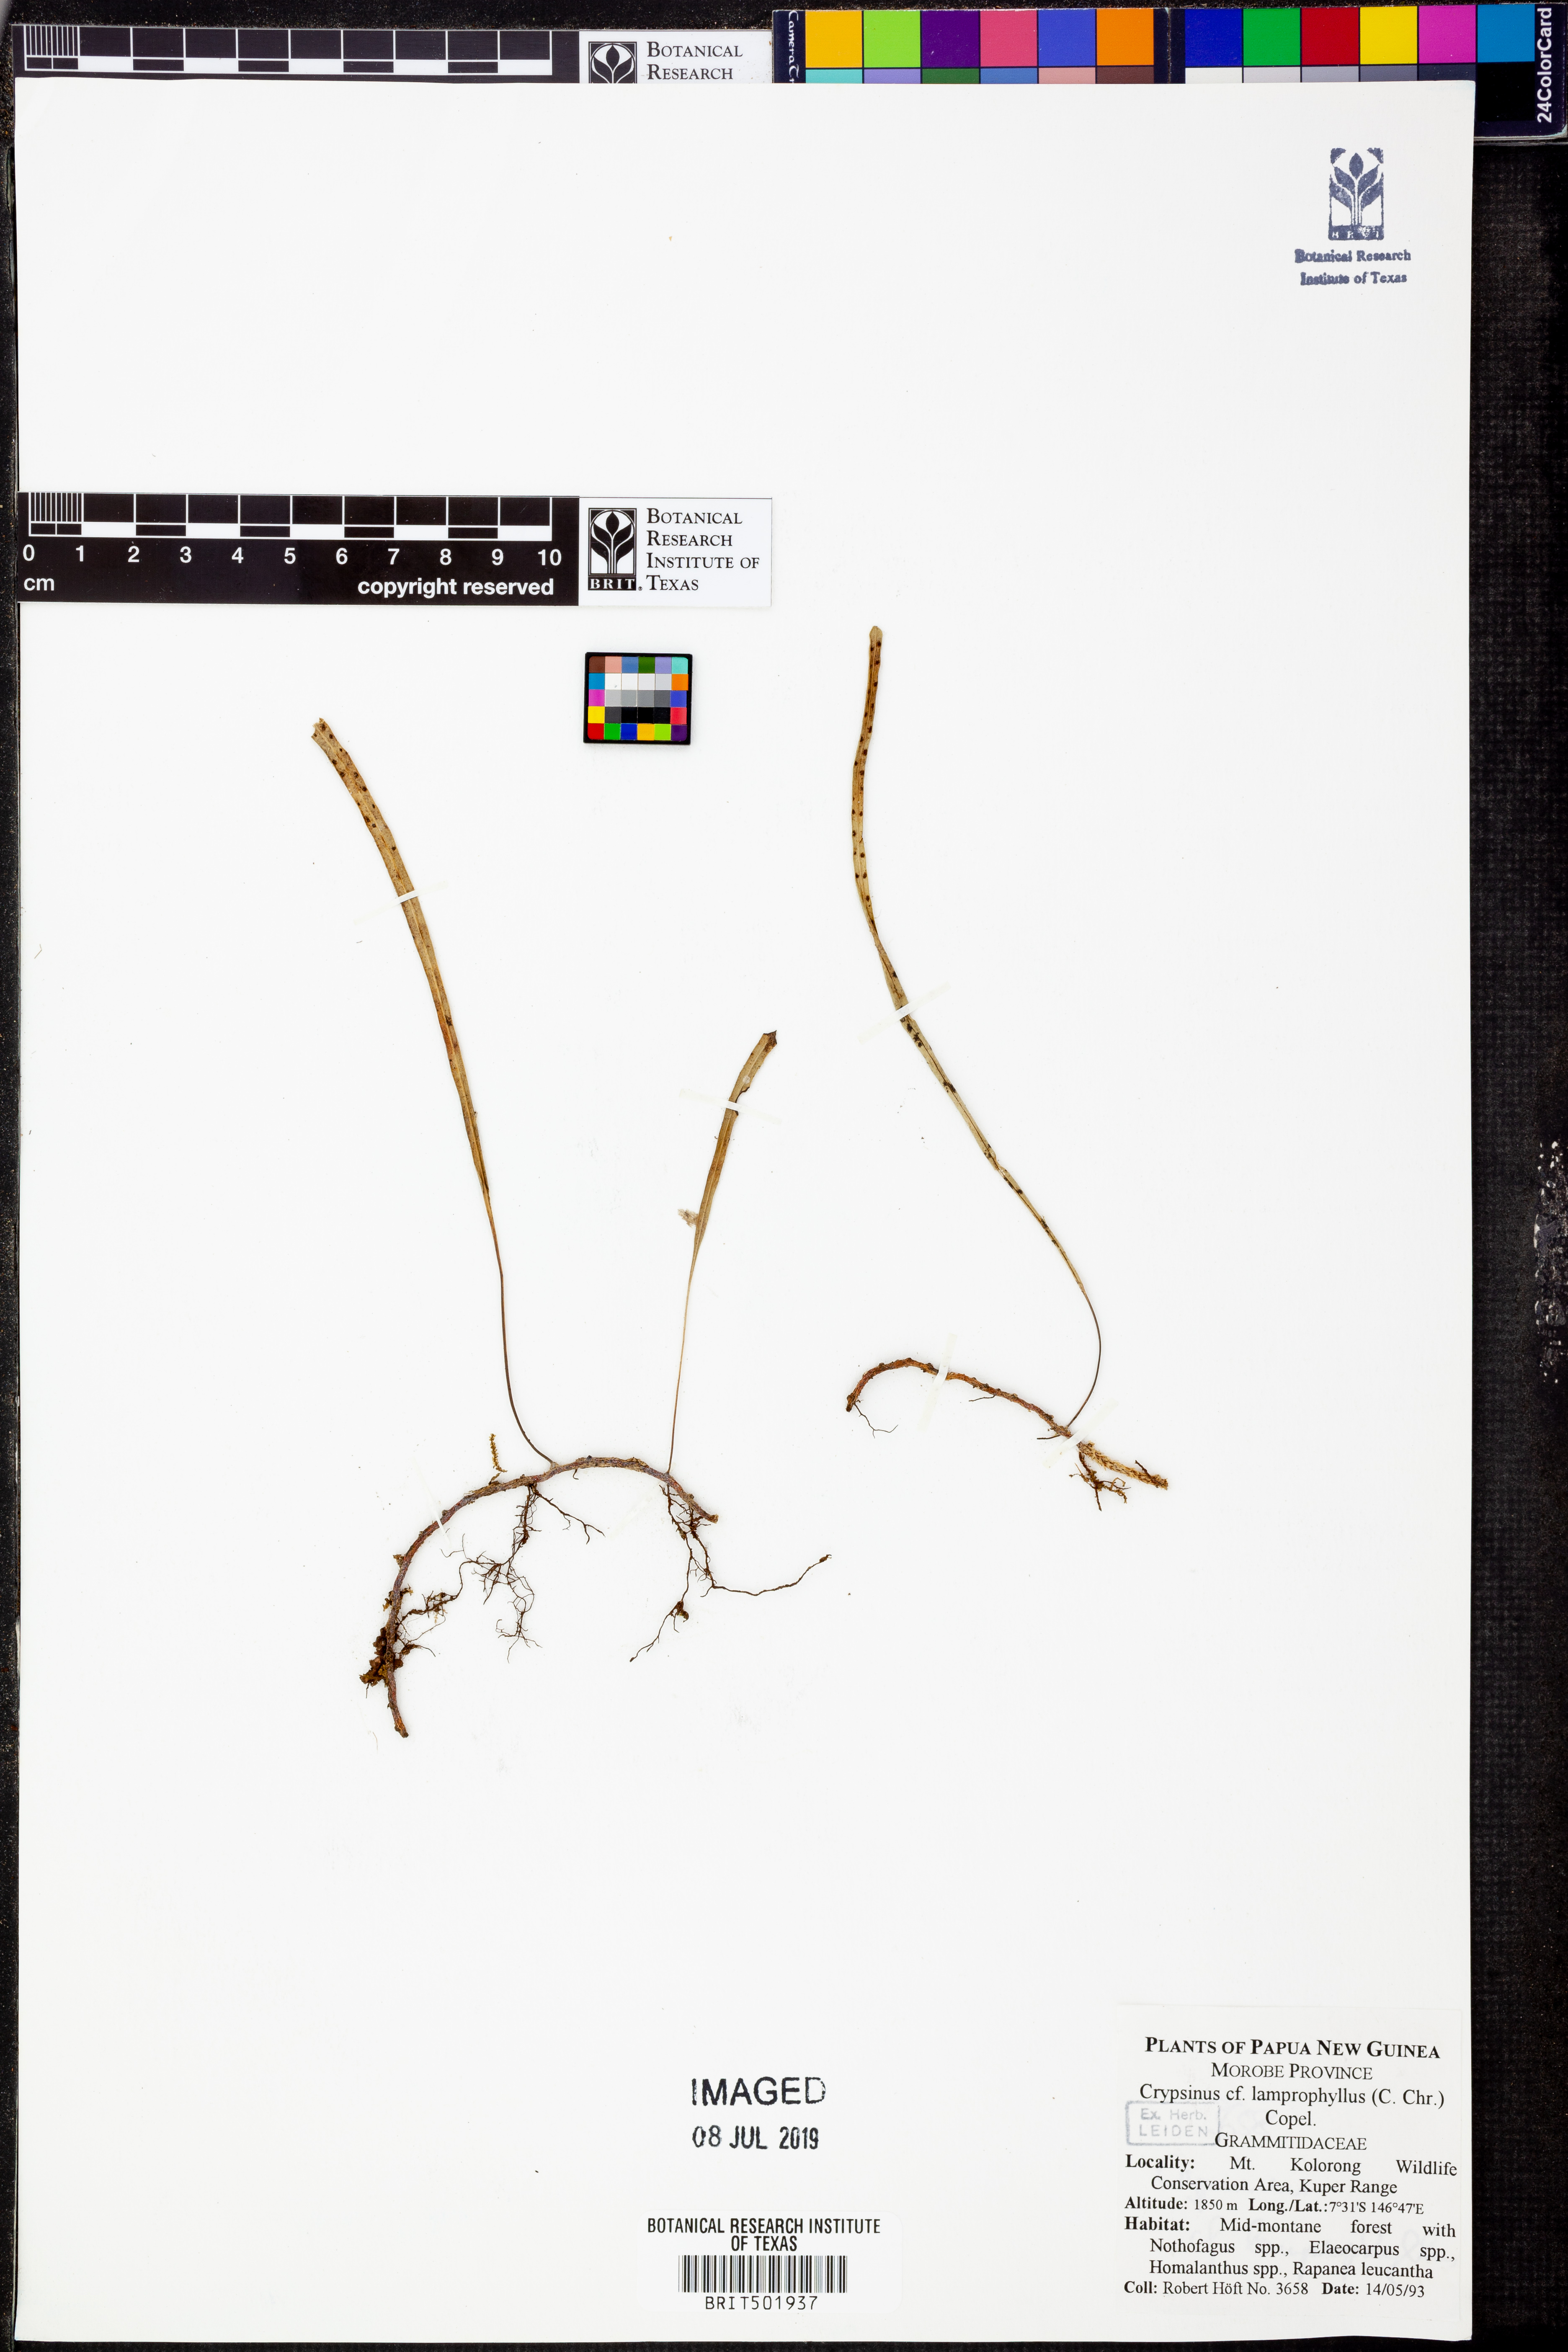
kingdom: Plantae
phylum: Tracheophyta
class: Polypodiopsida
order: Polypodiales
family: Polypodiaceae
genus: Selliguea
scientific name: Selliguea enervis
